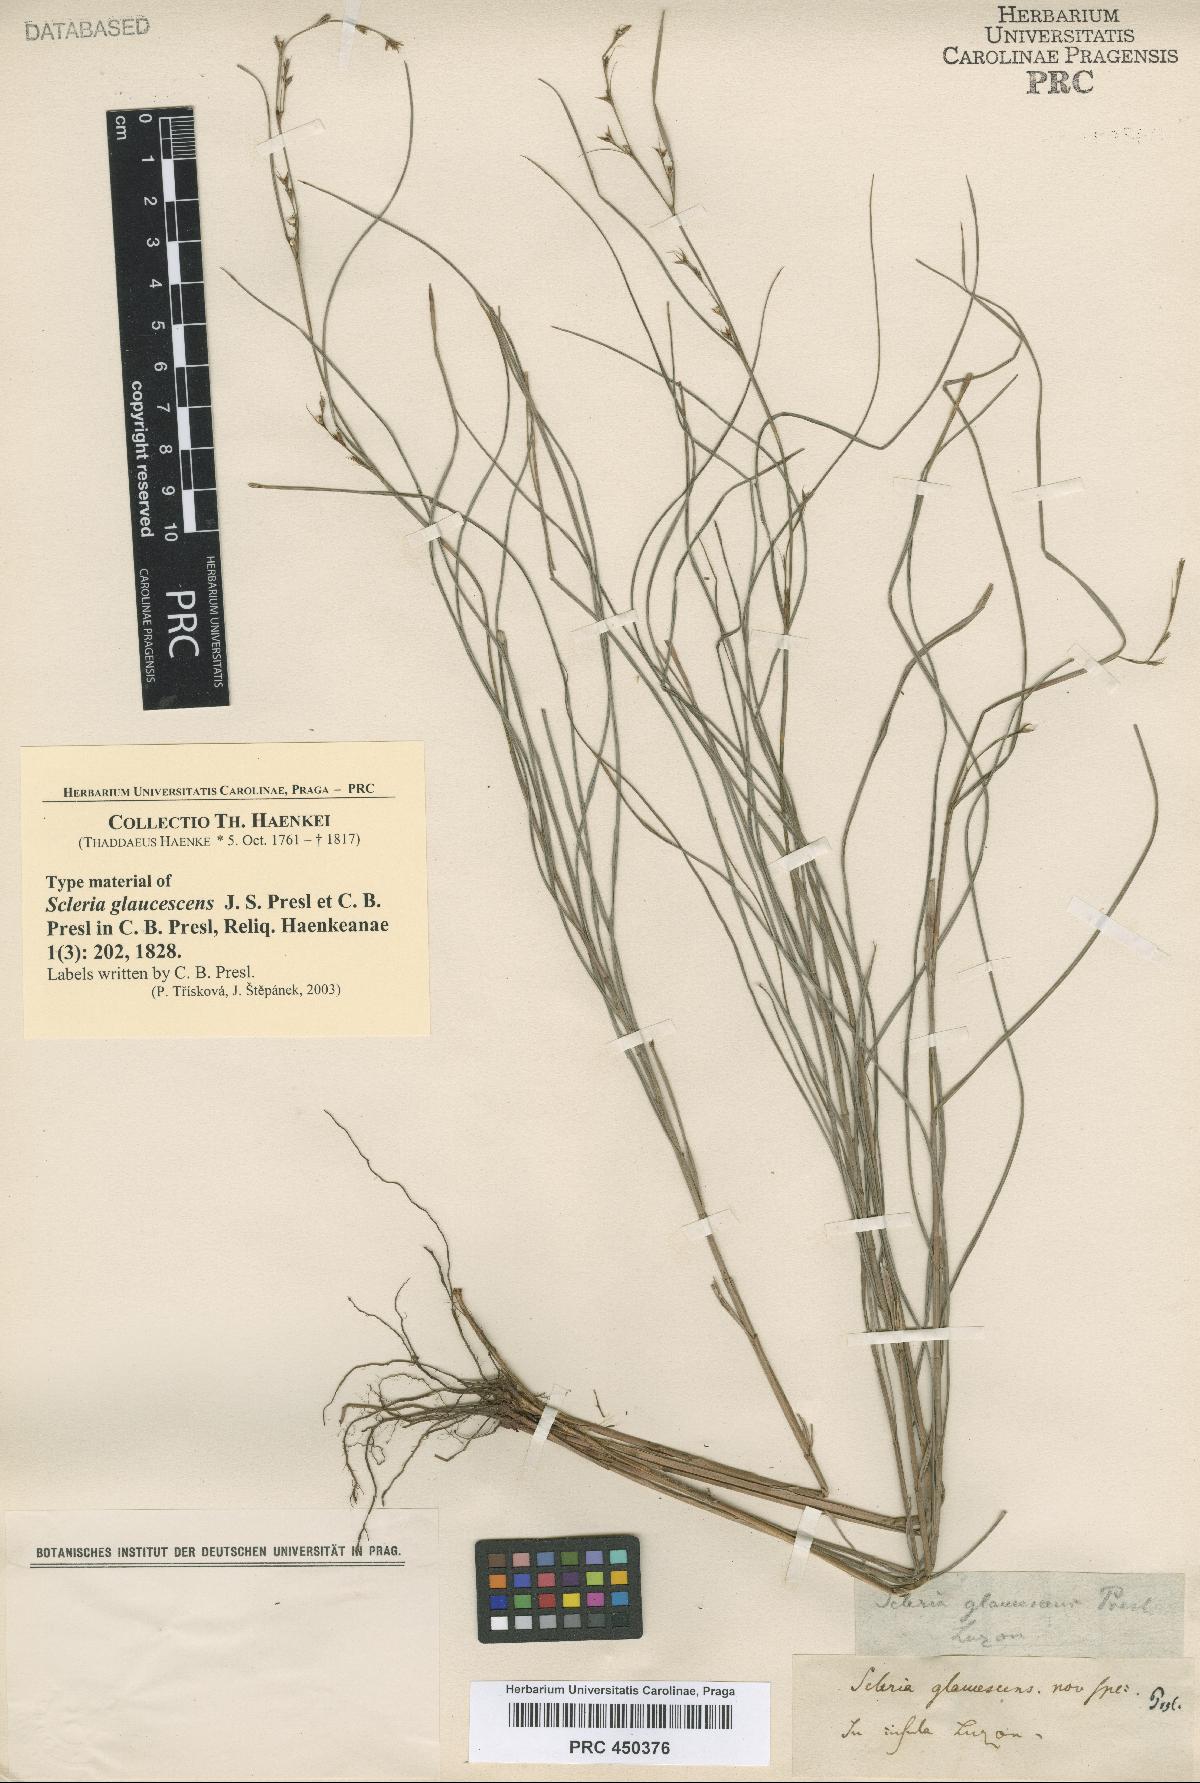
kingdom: Plantae
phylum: Tracheophyta
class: Liliopsida
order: Poales
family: Cyperaceae
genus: Scleria
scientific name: Scleria lithosperma
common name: Florida keys nut-rush
